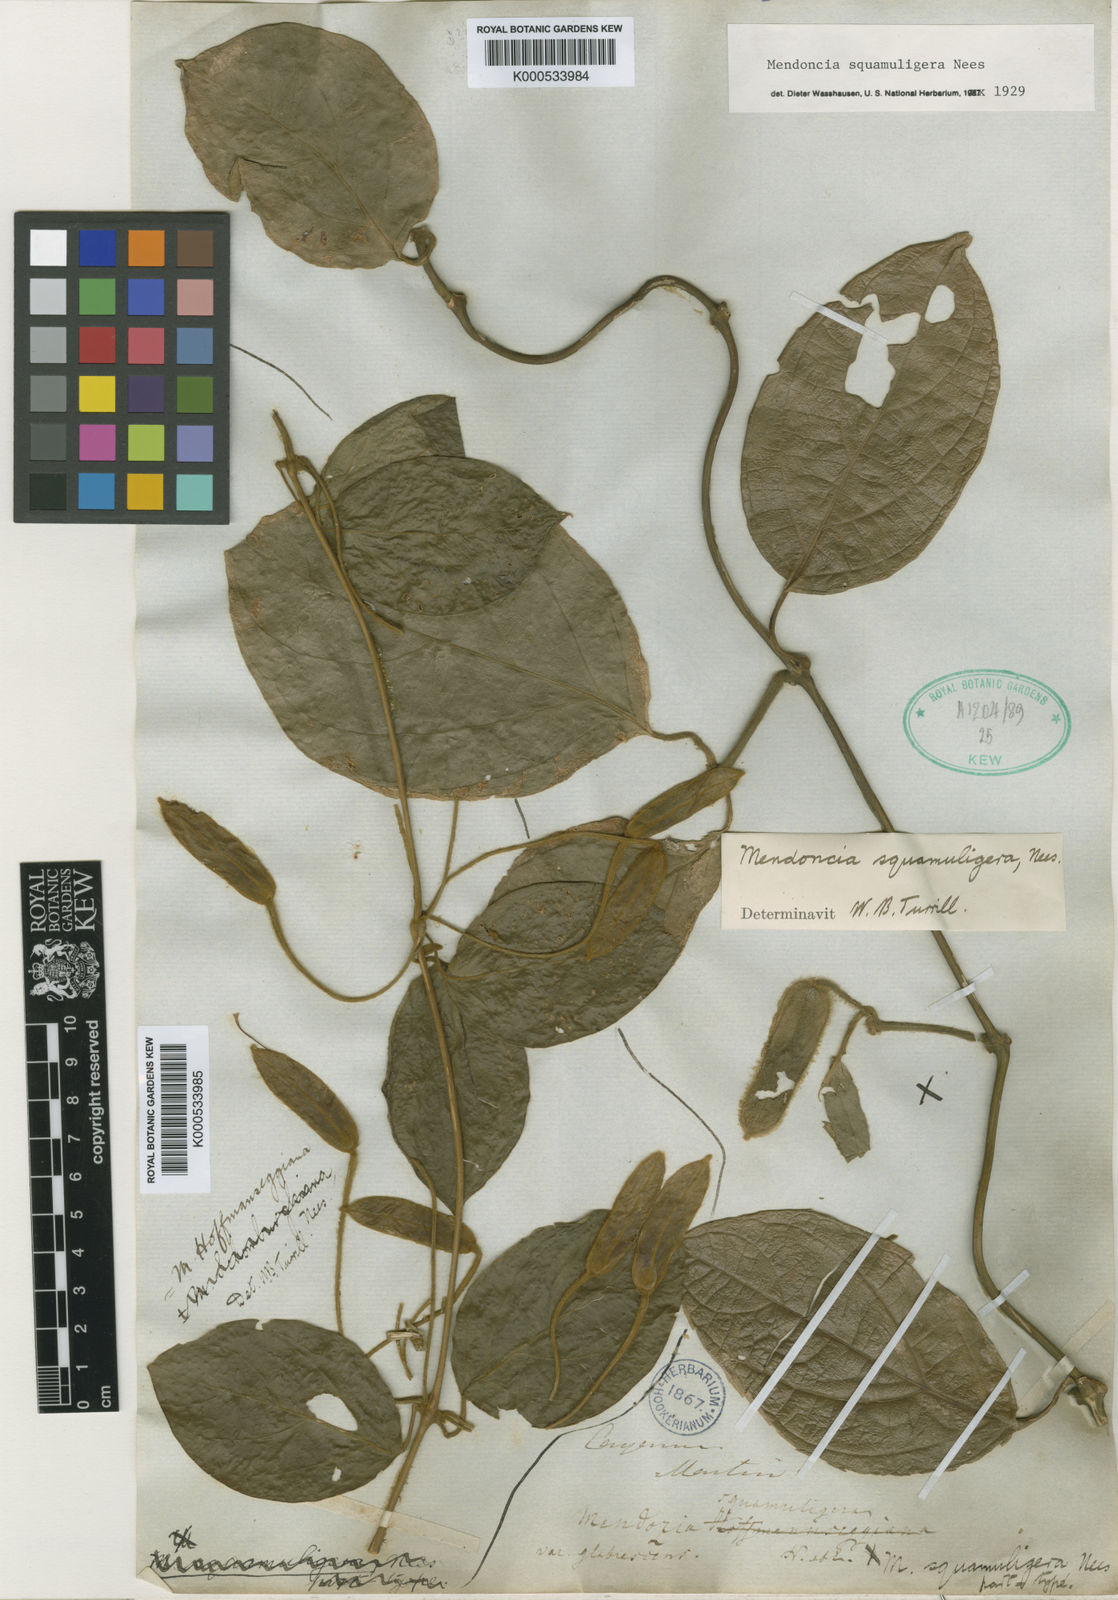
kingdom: Plantae
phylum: Tracheophyta
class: Magnoliopsida
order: Lamiales
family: Acanthaceae
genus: Mendoncia
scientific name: Mendoncia squamuligera
